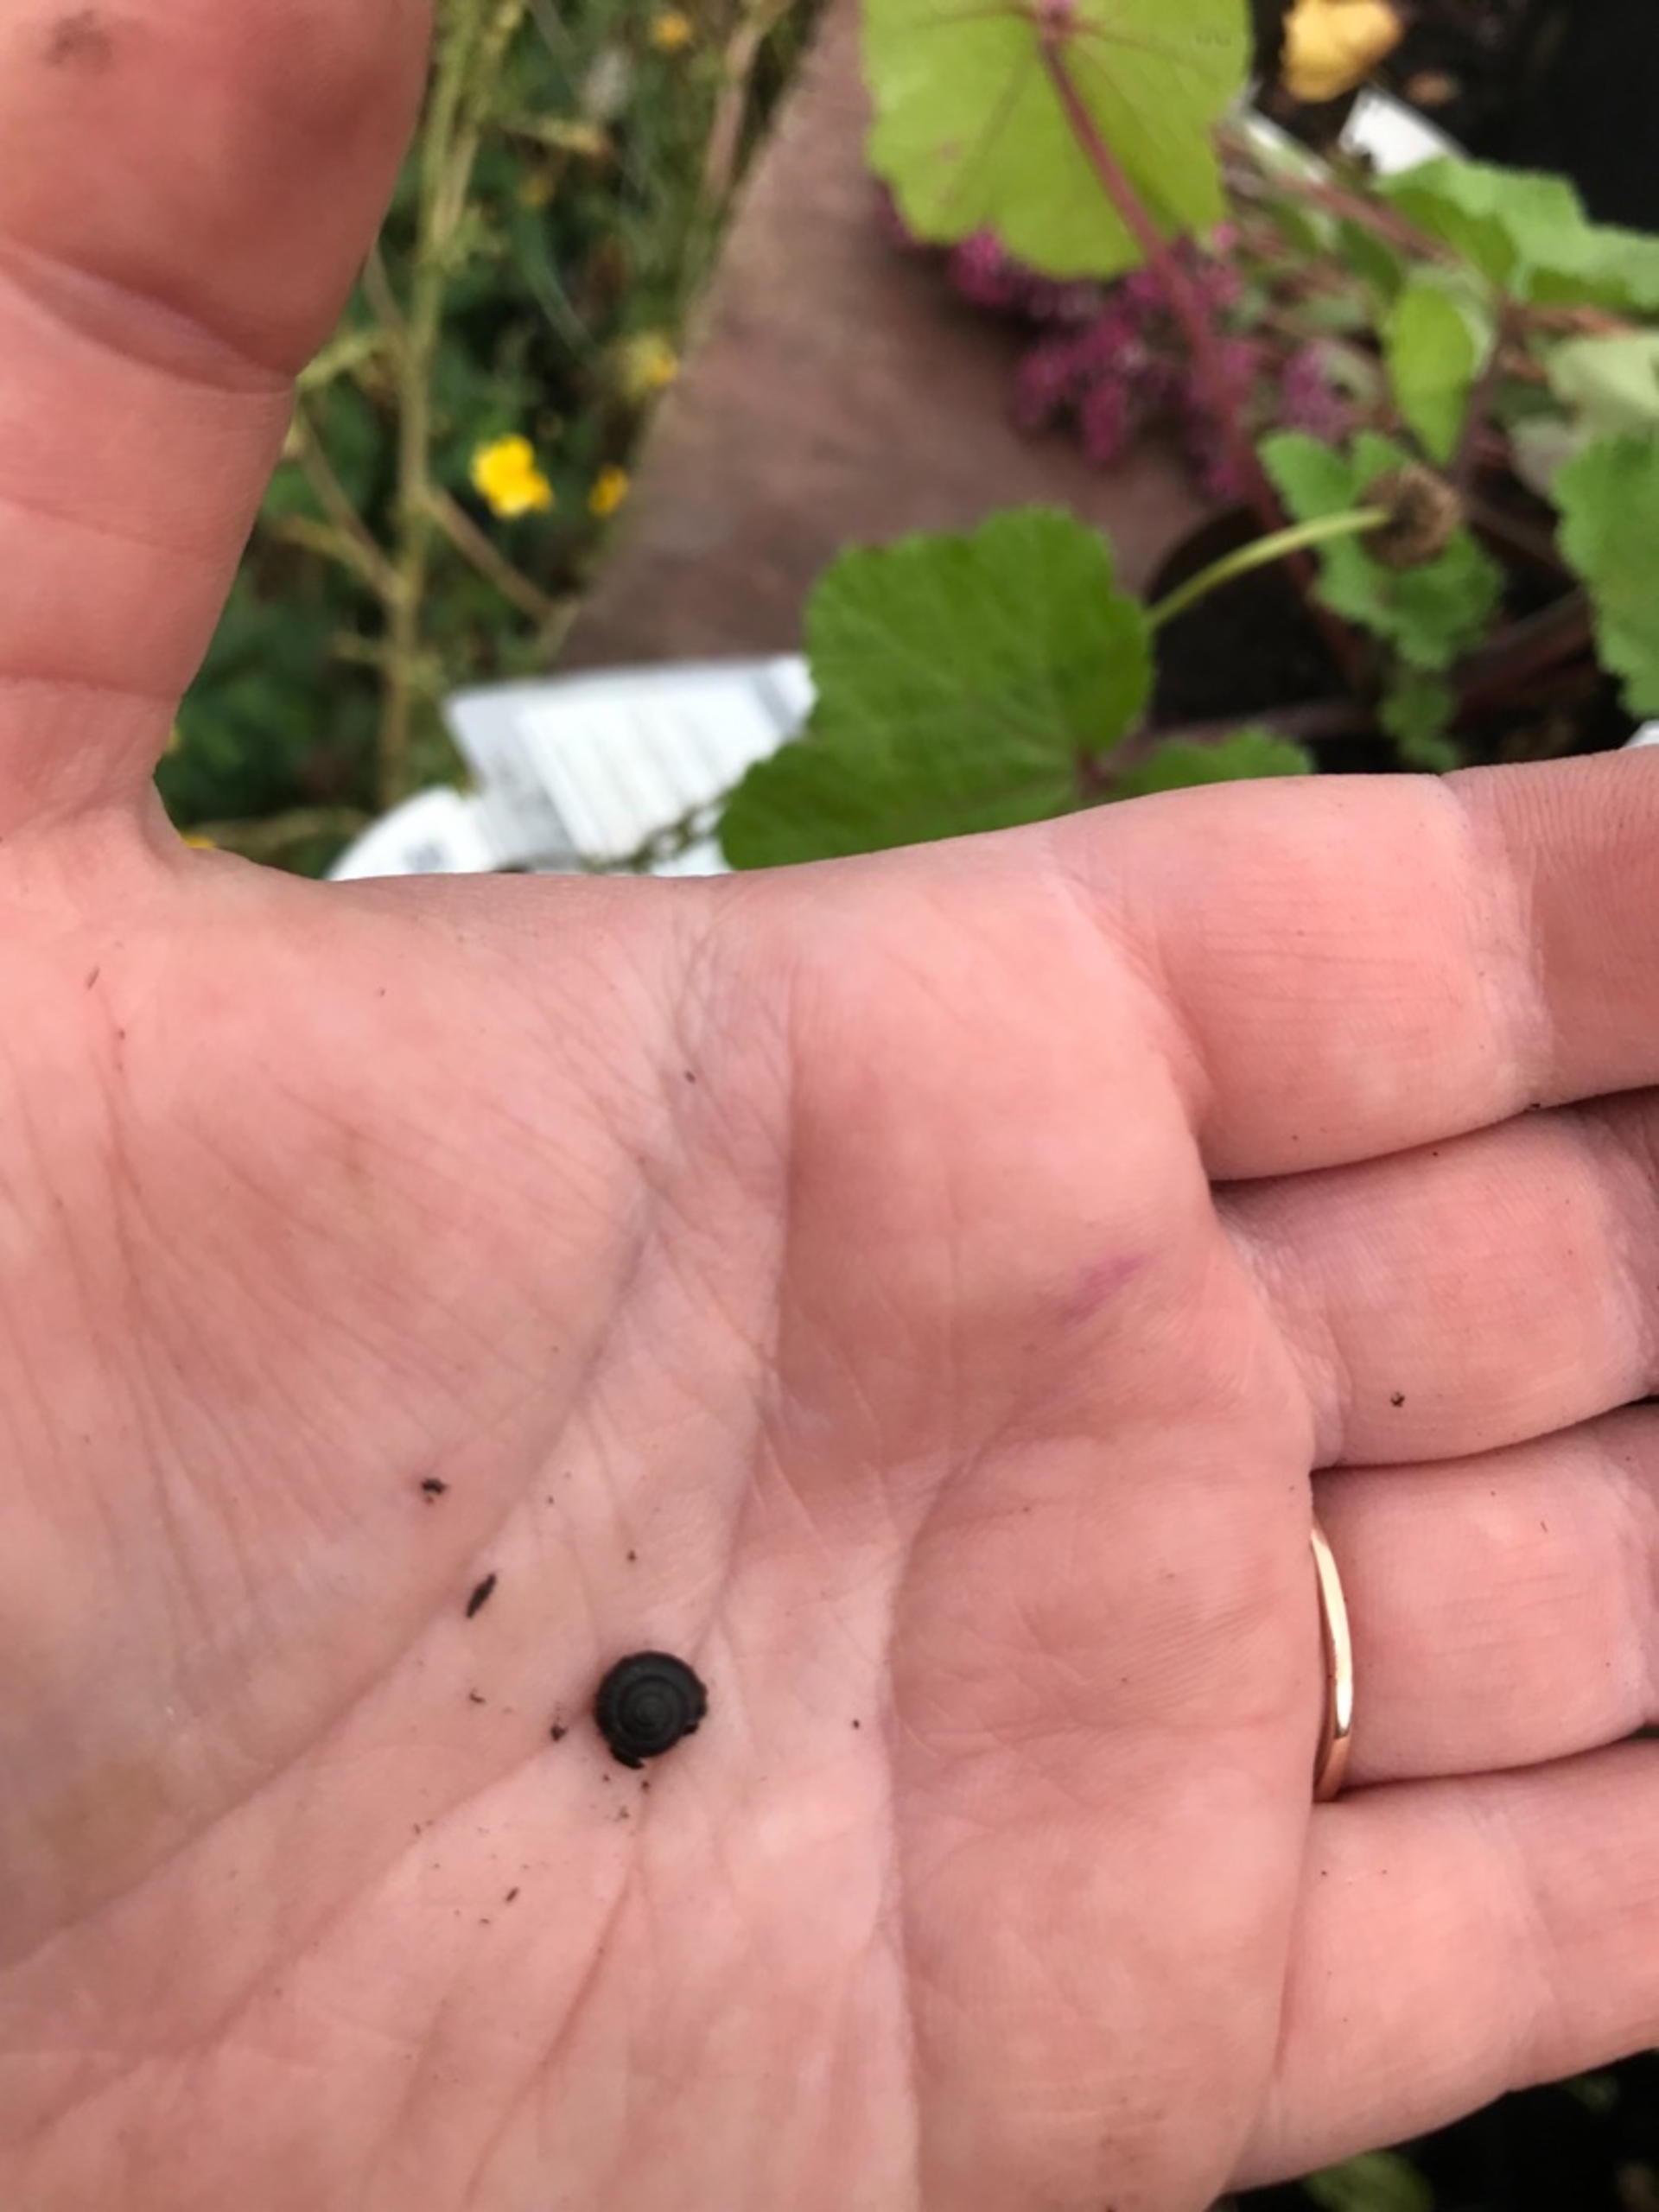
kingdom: Animalia
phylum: Mollusca
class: Gastropoda
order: Stylommatophora
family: Hygromiidae
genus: Trochulus
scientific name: Trochulus hispidus
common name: Håret snegl
